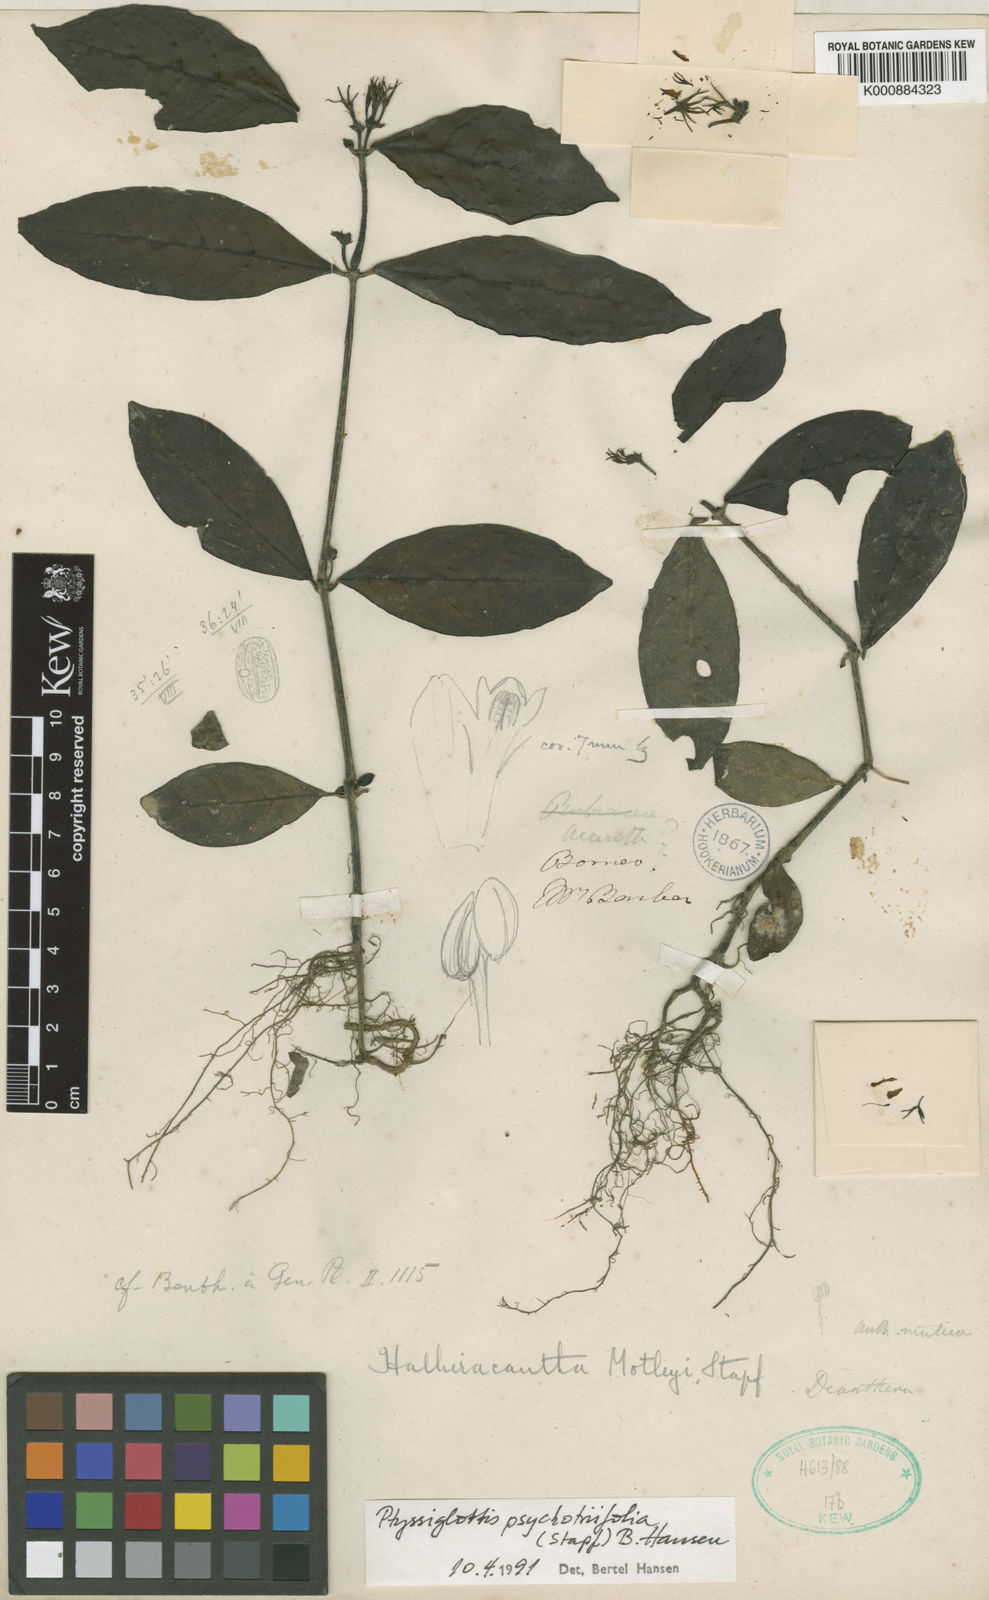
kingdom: Plantae
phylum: Tracheophyta
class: Magnoliopsida
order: Lamiales
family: Acanthaceae
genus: Ptyssiglottis
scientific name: Ptyssiglottis psychotriifolia
